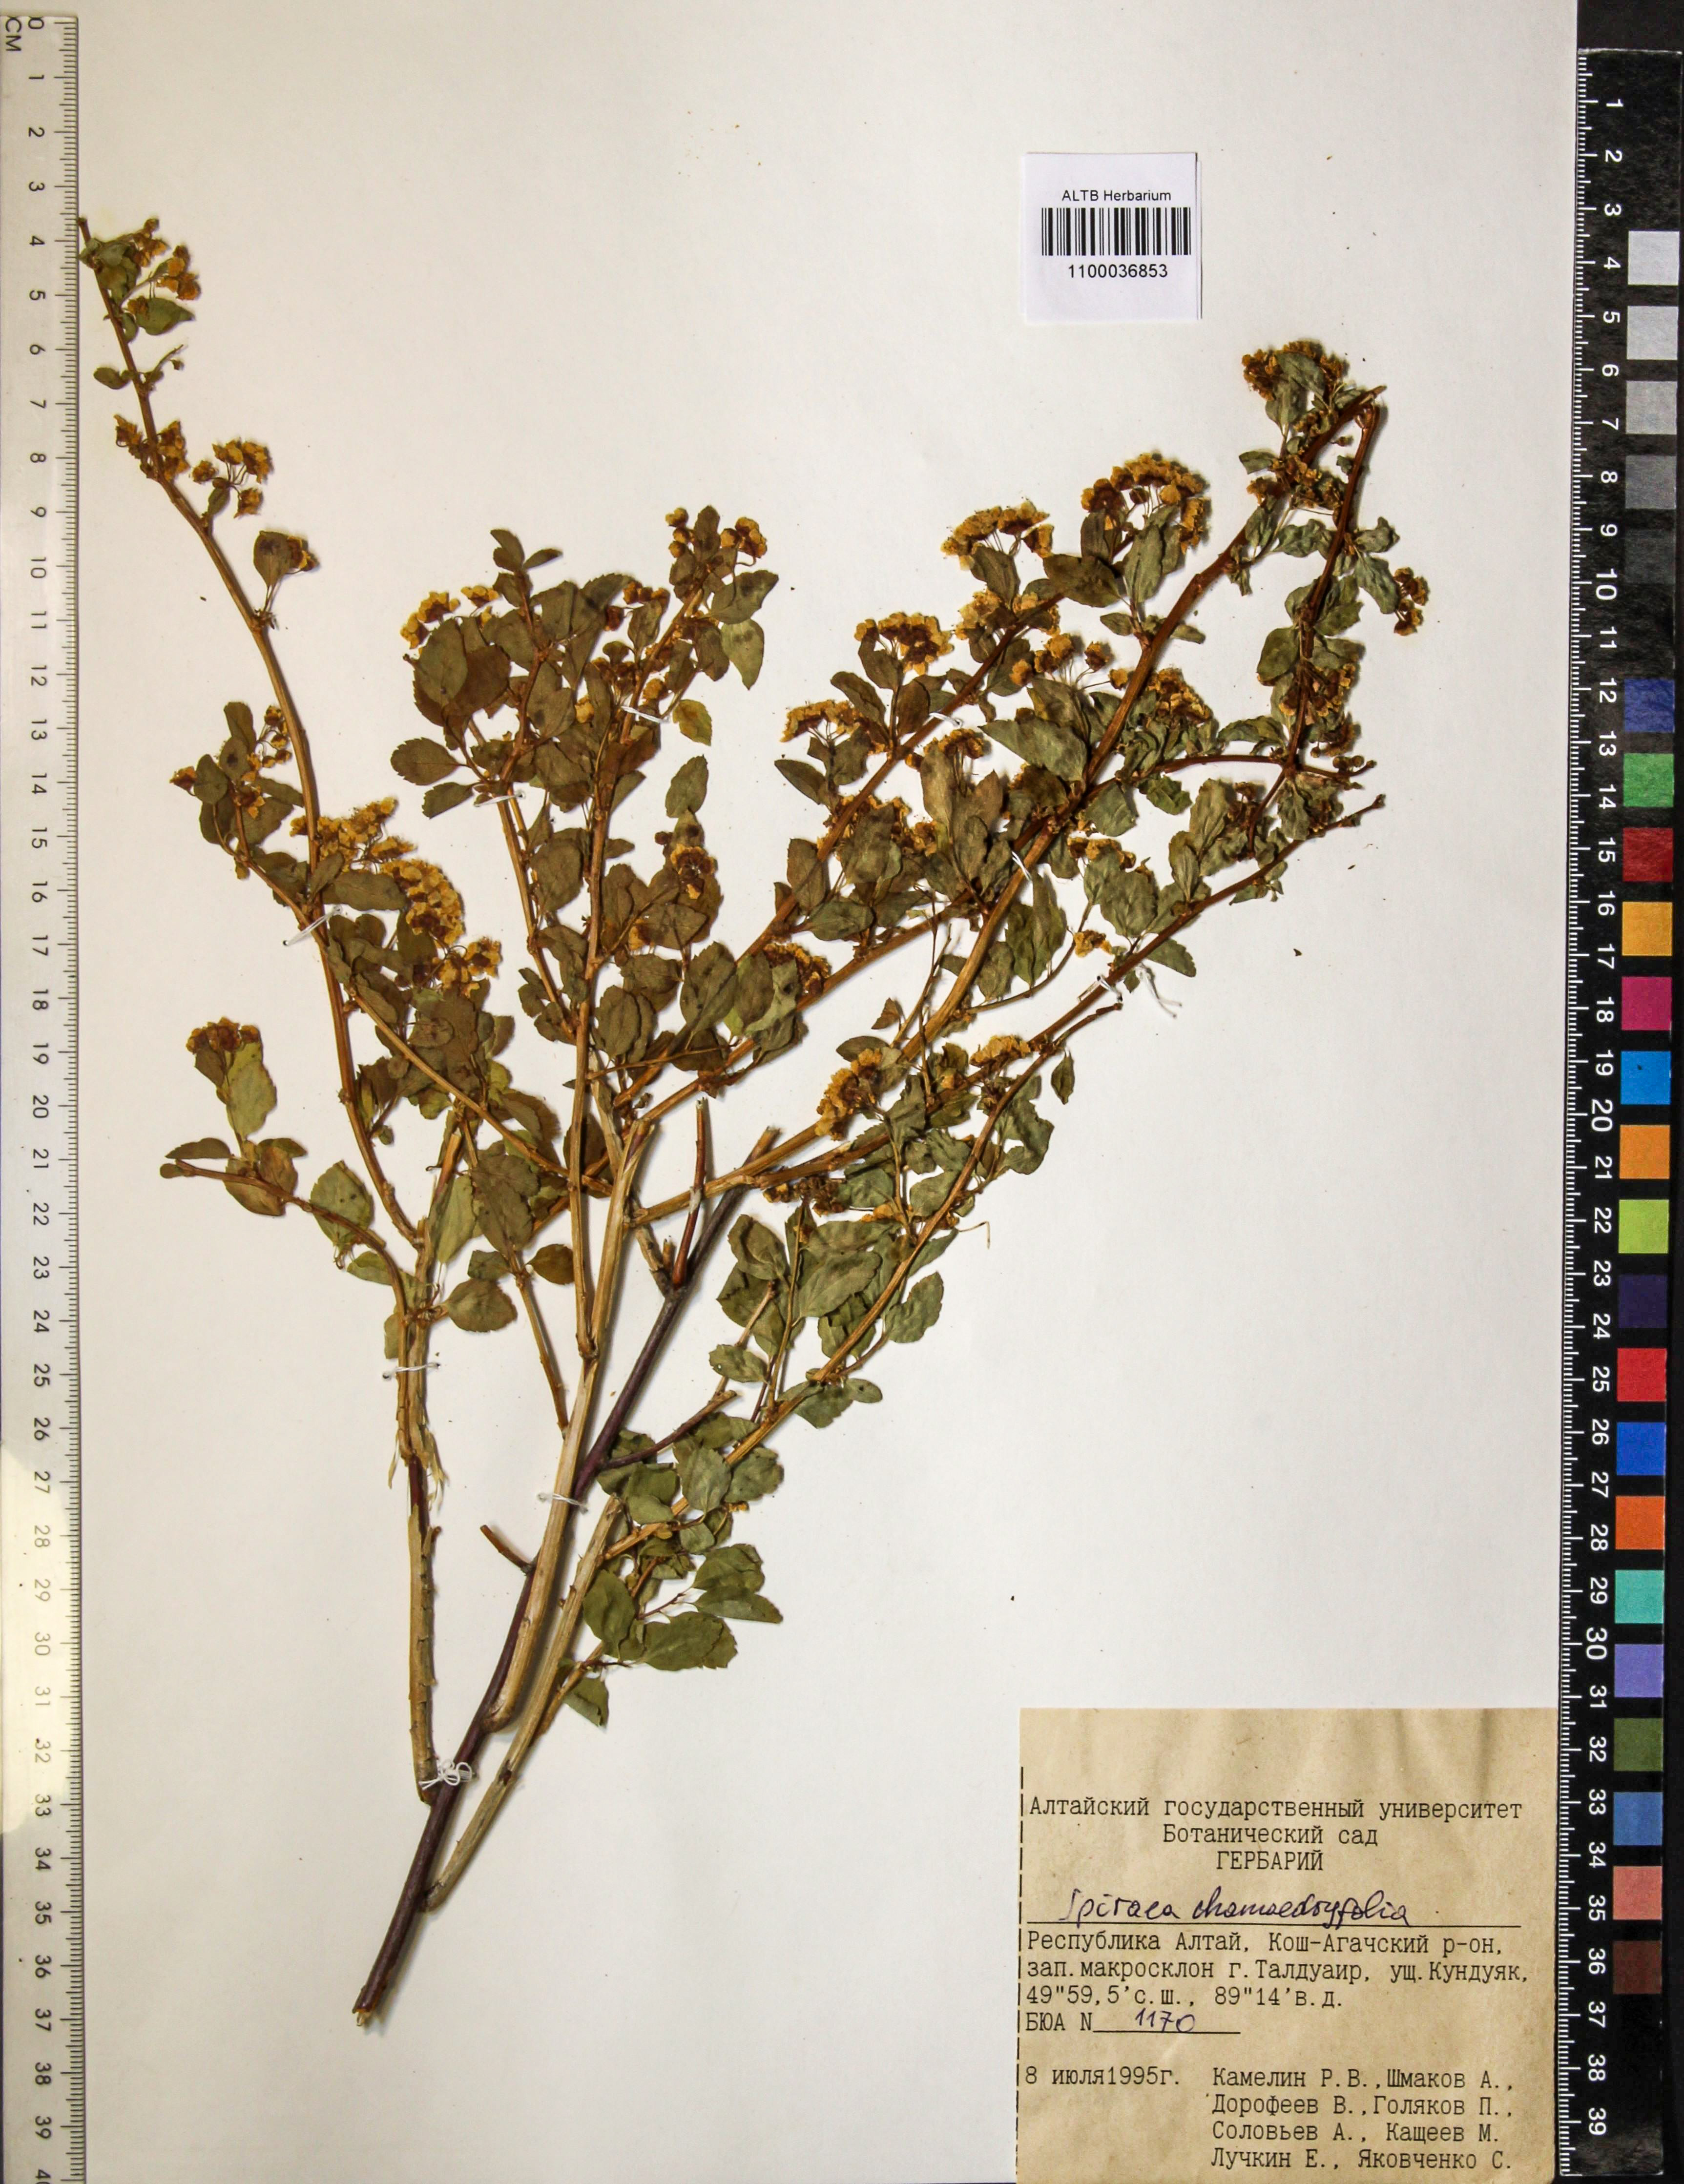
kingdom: Plantae
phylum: Tracheophyta
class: Magnoliopsida
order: Rosales
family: Rosaceae
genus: Spiraea
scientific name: Spiraea chamaedryfolia
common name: Elm-leaved spiraea
